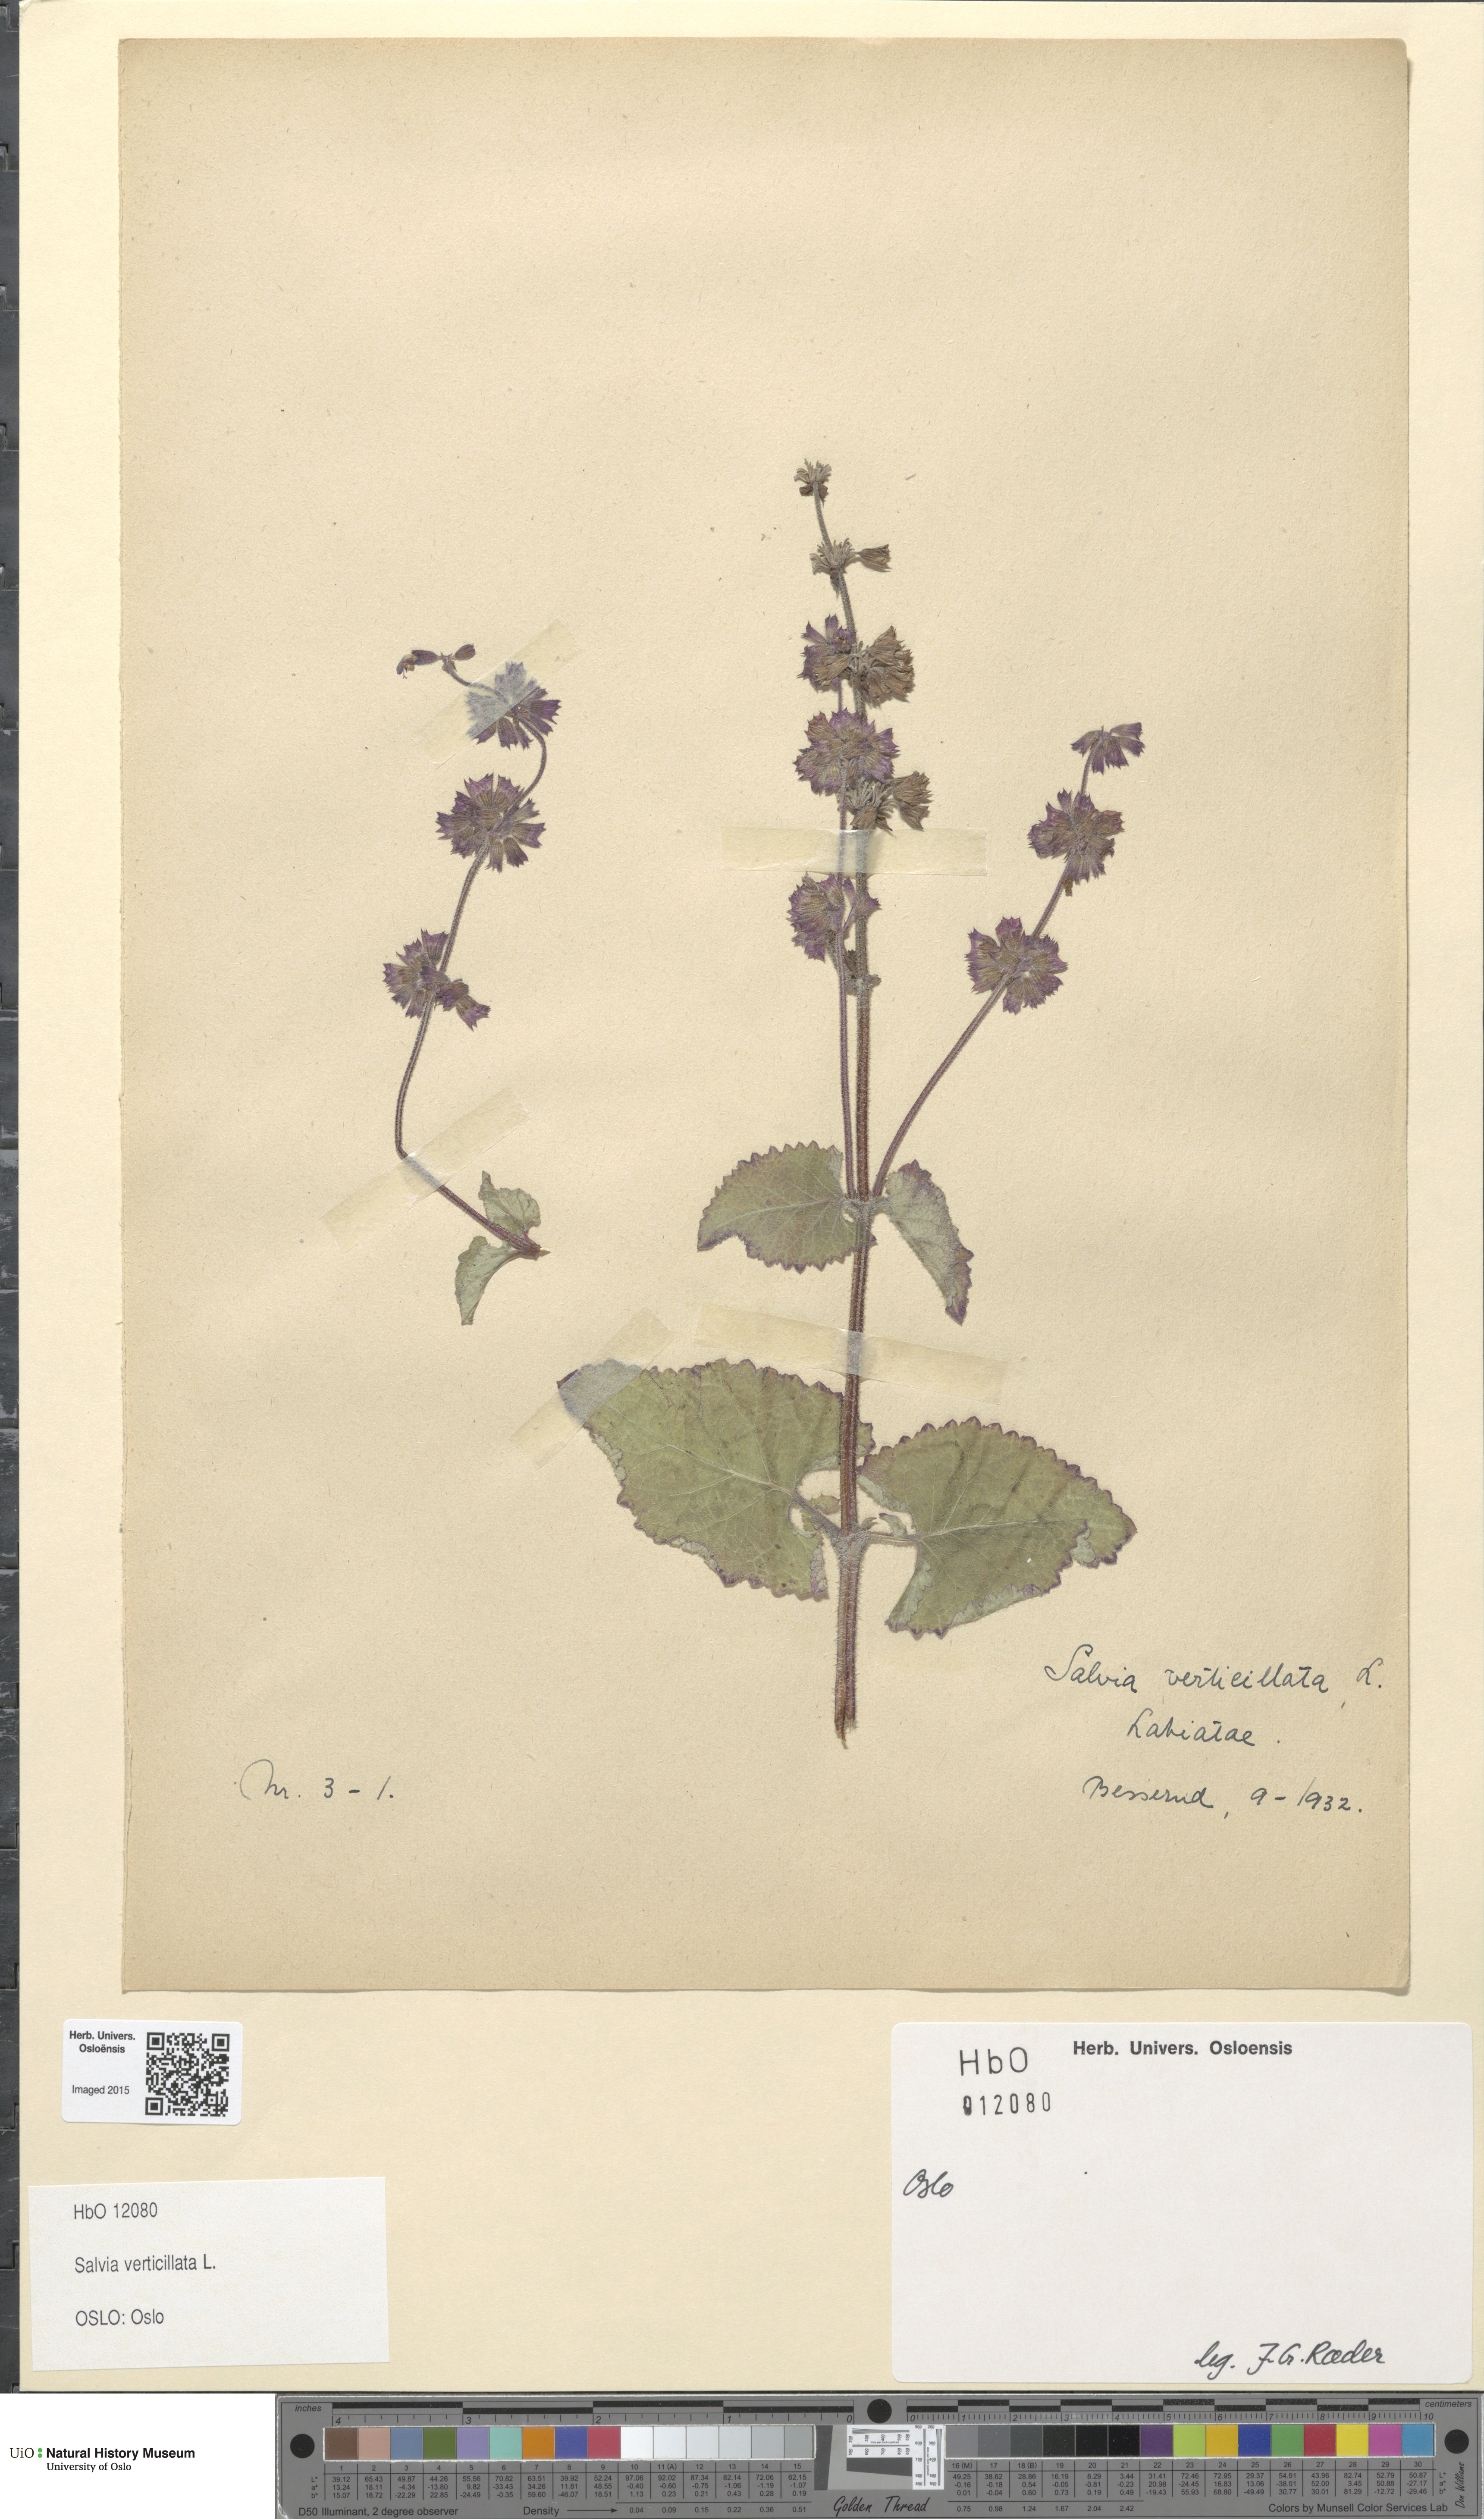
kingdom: Plantae
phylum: Tracheophyta
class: Magnoliopsida
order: Lamiales
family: Lamiaceae
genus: Salvia
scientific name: Salvia verticillata
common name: Whorled clary
